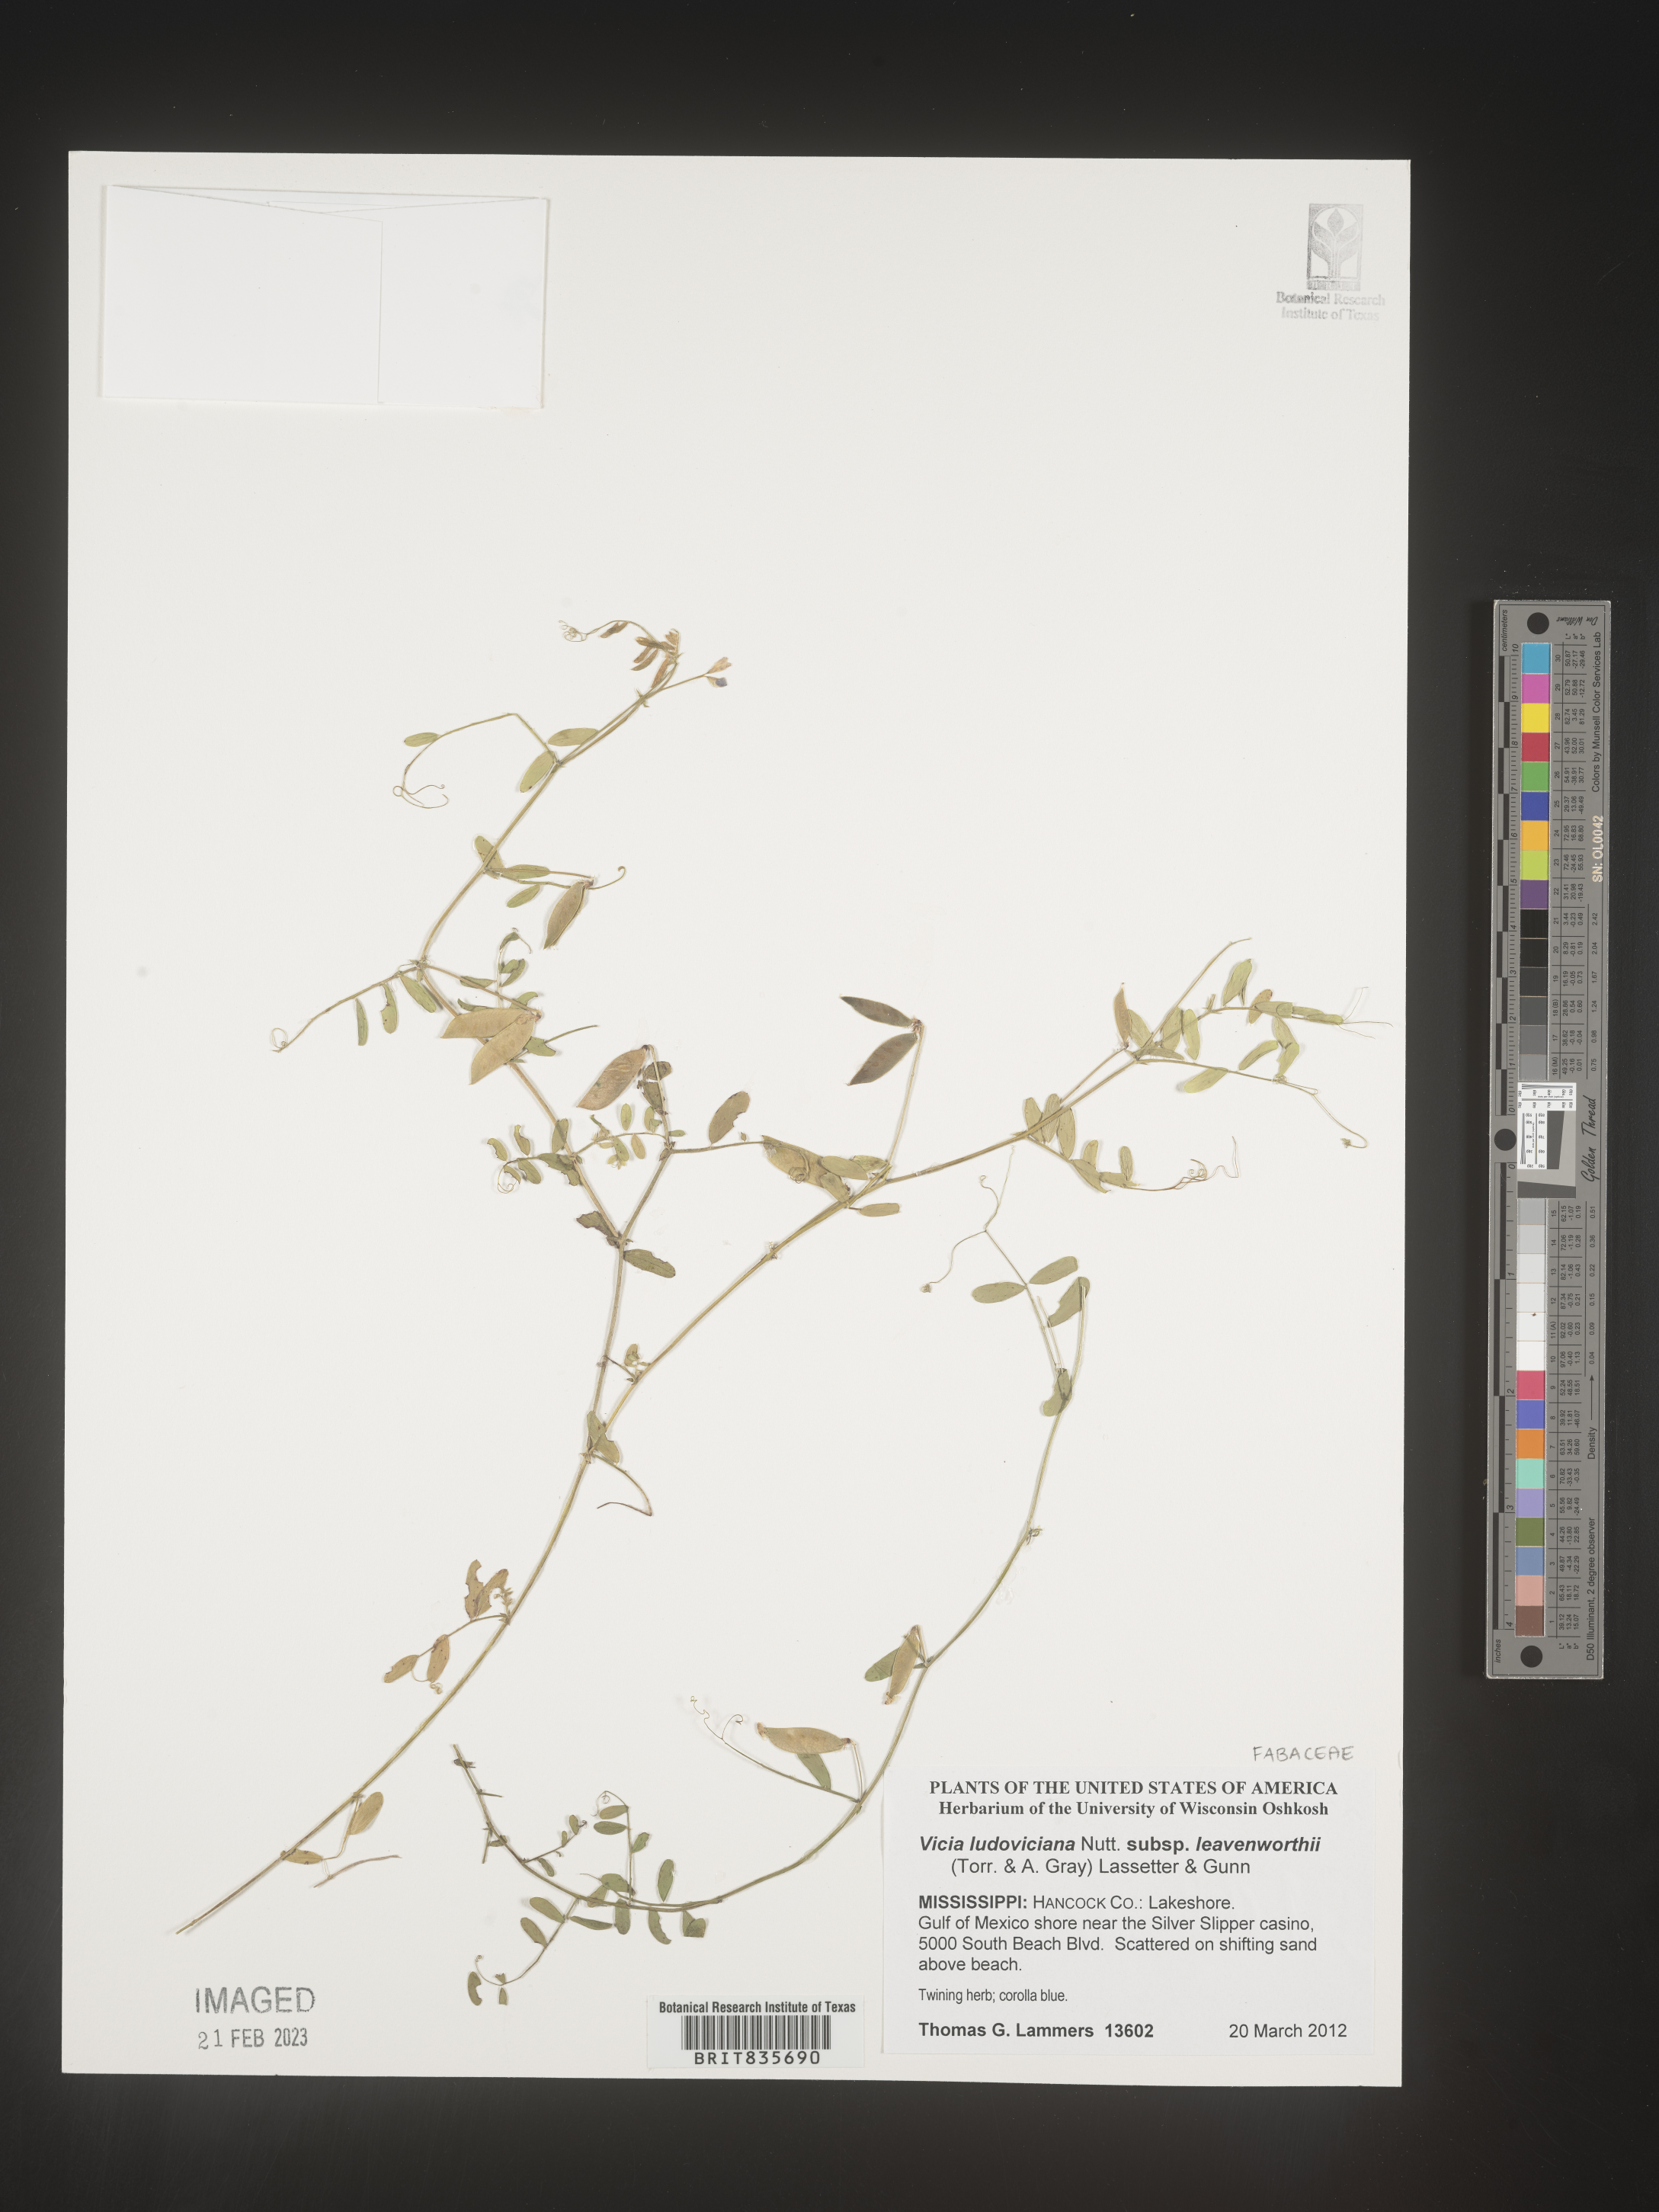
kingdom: Plantae
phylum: Tracheophyta
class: Magnoliopsida
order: Fabales
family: Fabaceae
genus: Vicia
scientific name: Vicia ludoviciana
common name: Louisiana vetch
